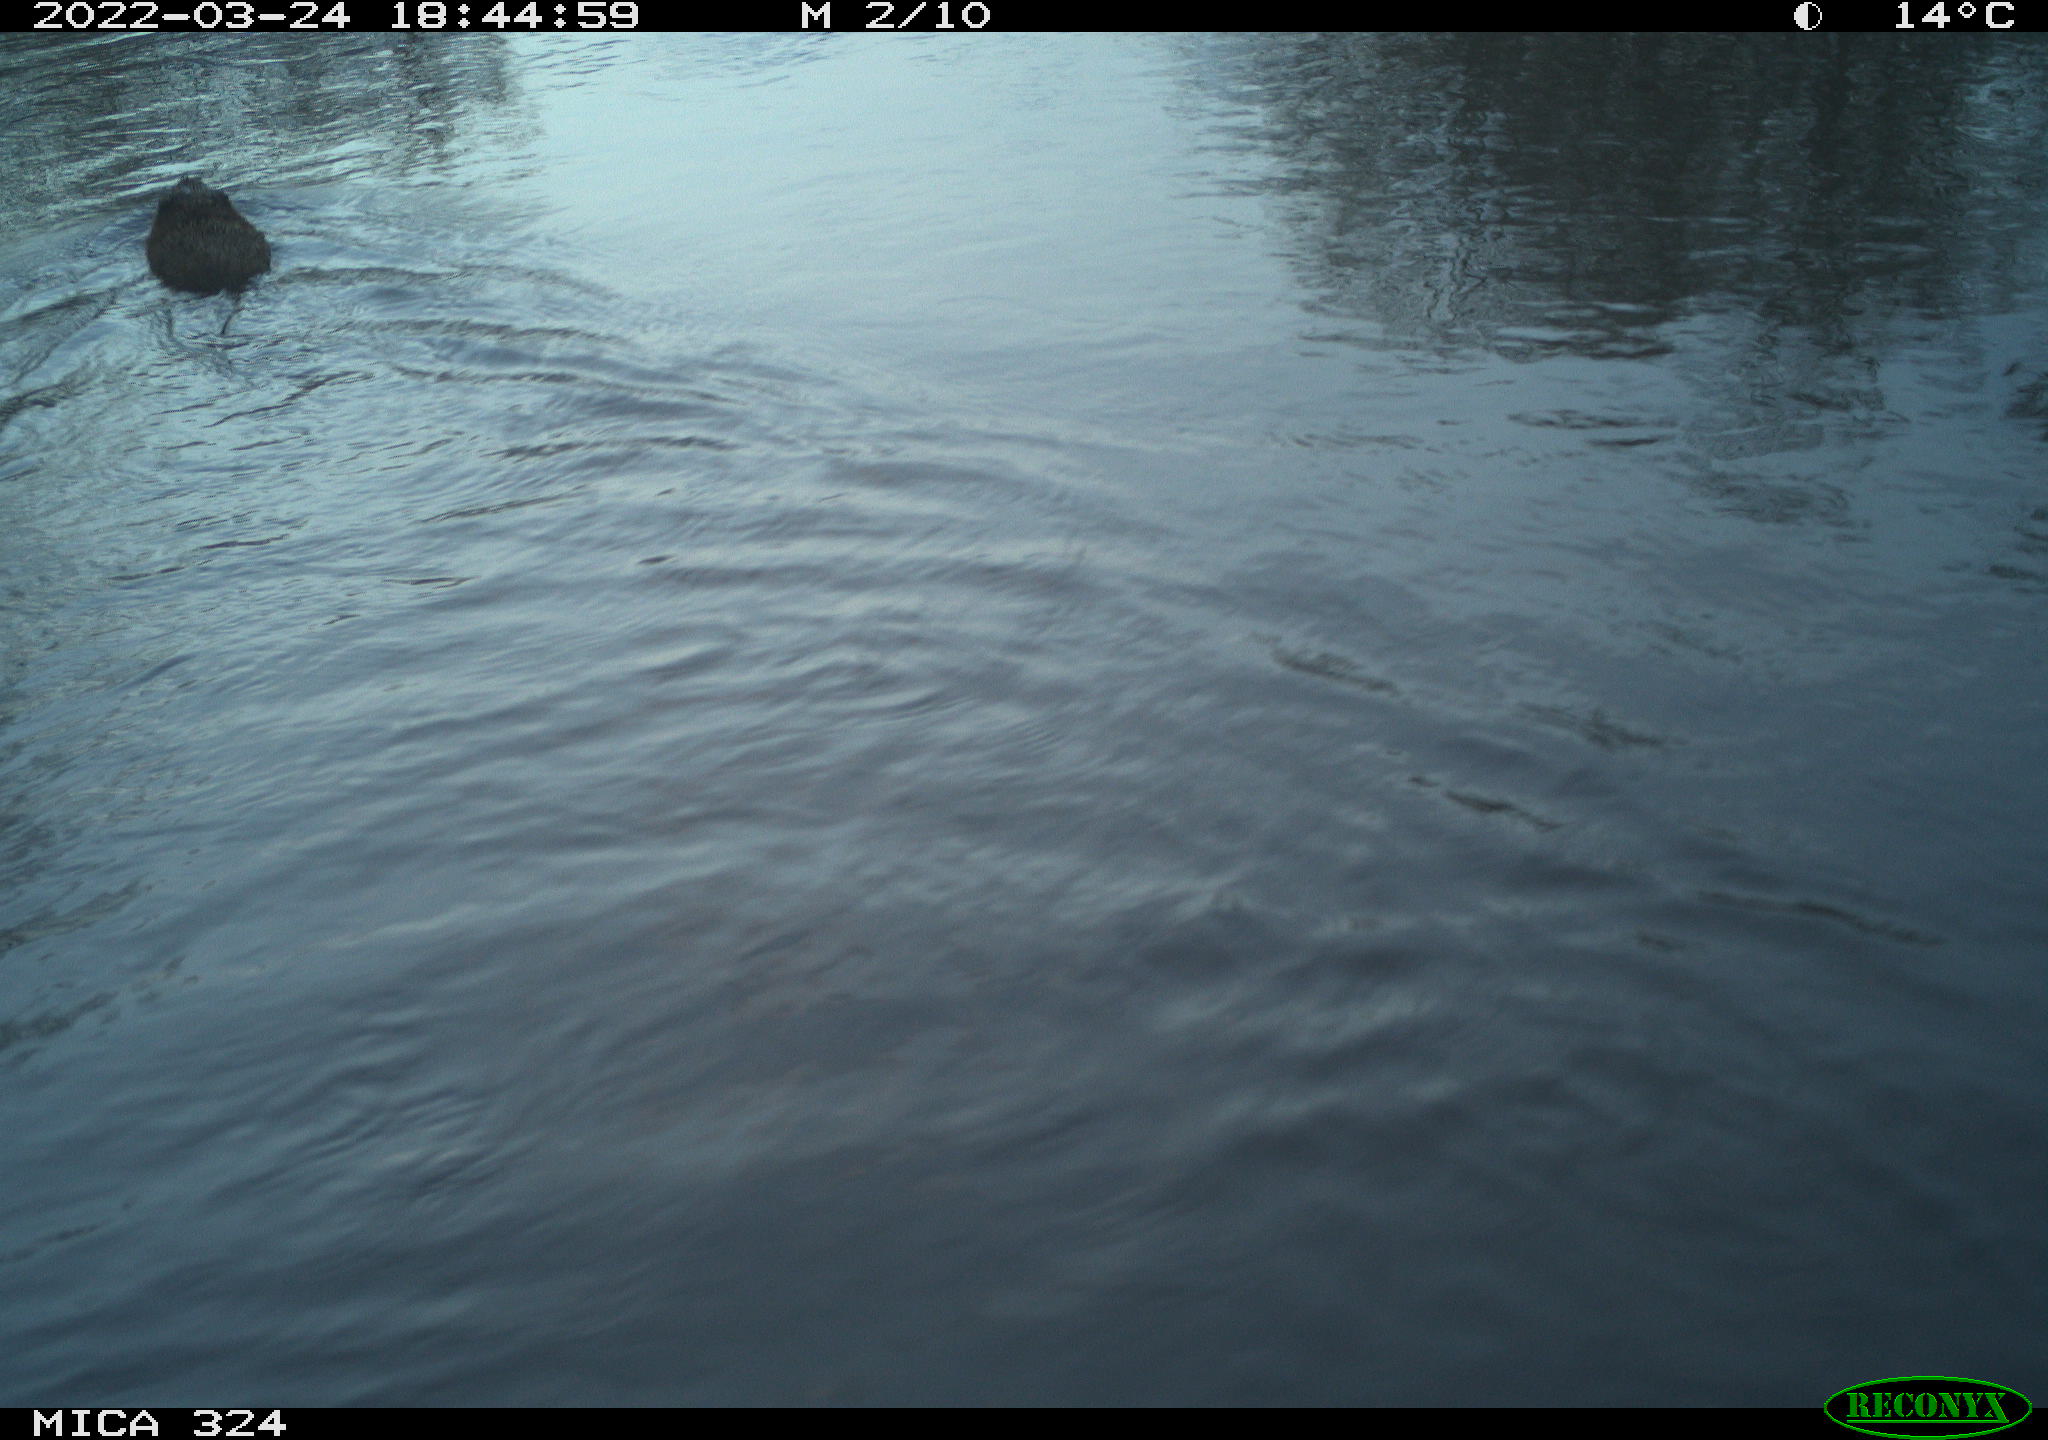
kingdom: Animalia
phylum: Chordata
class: Mammalia
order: Rodentia
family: Cricetidae
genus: Ondatra
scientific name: Ondatra zibethicus
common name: Muskrat
